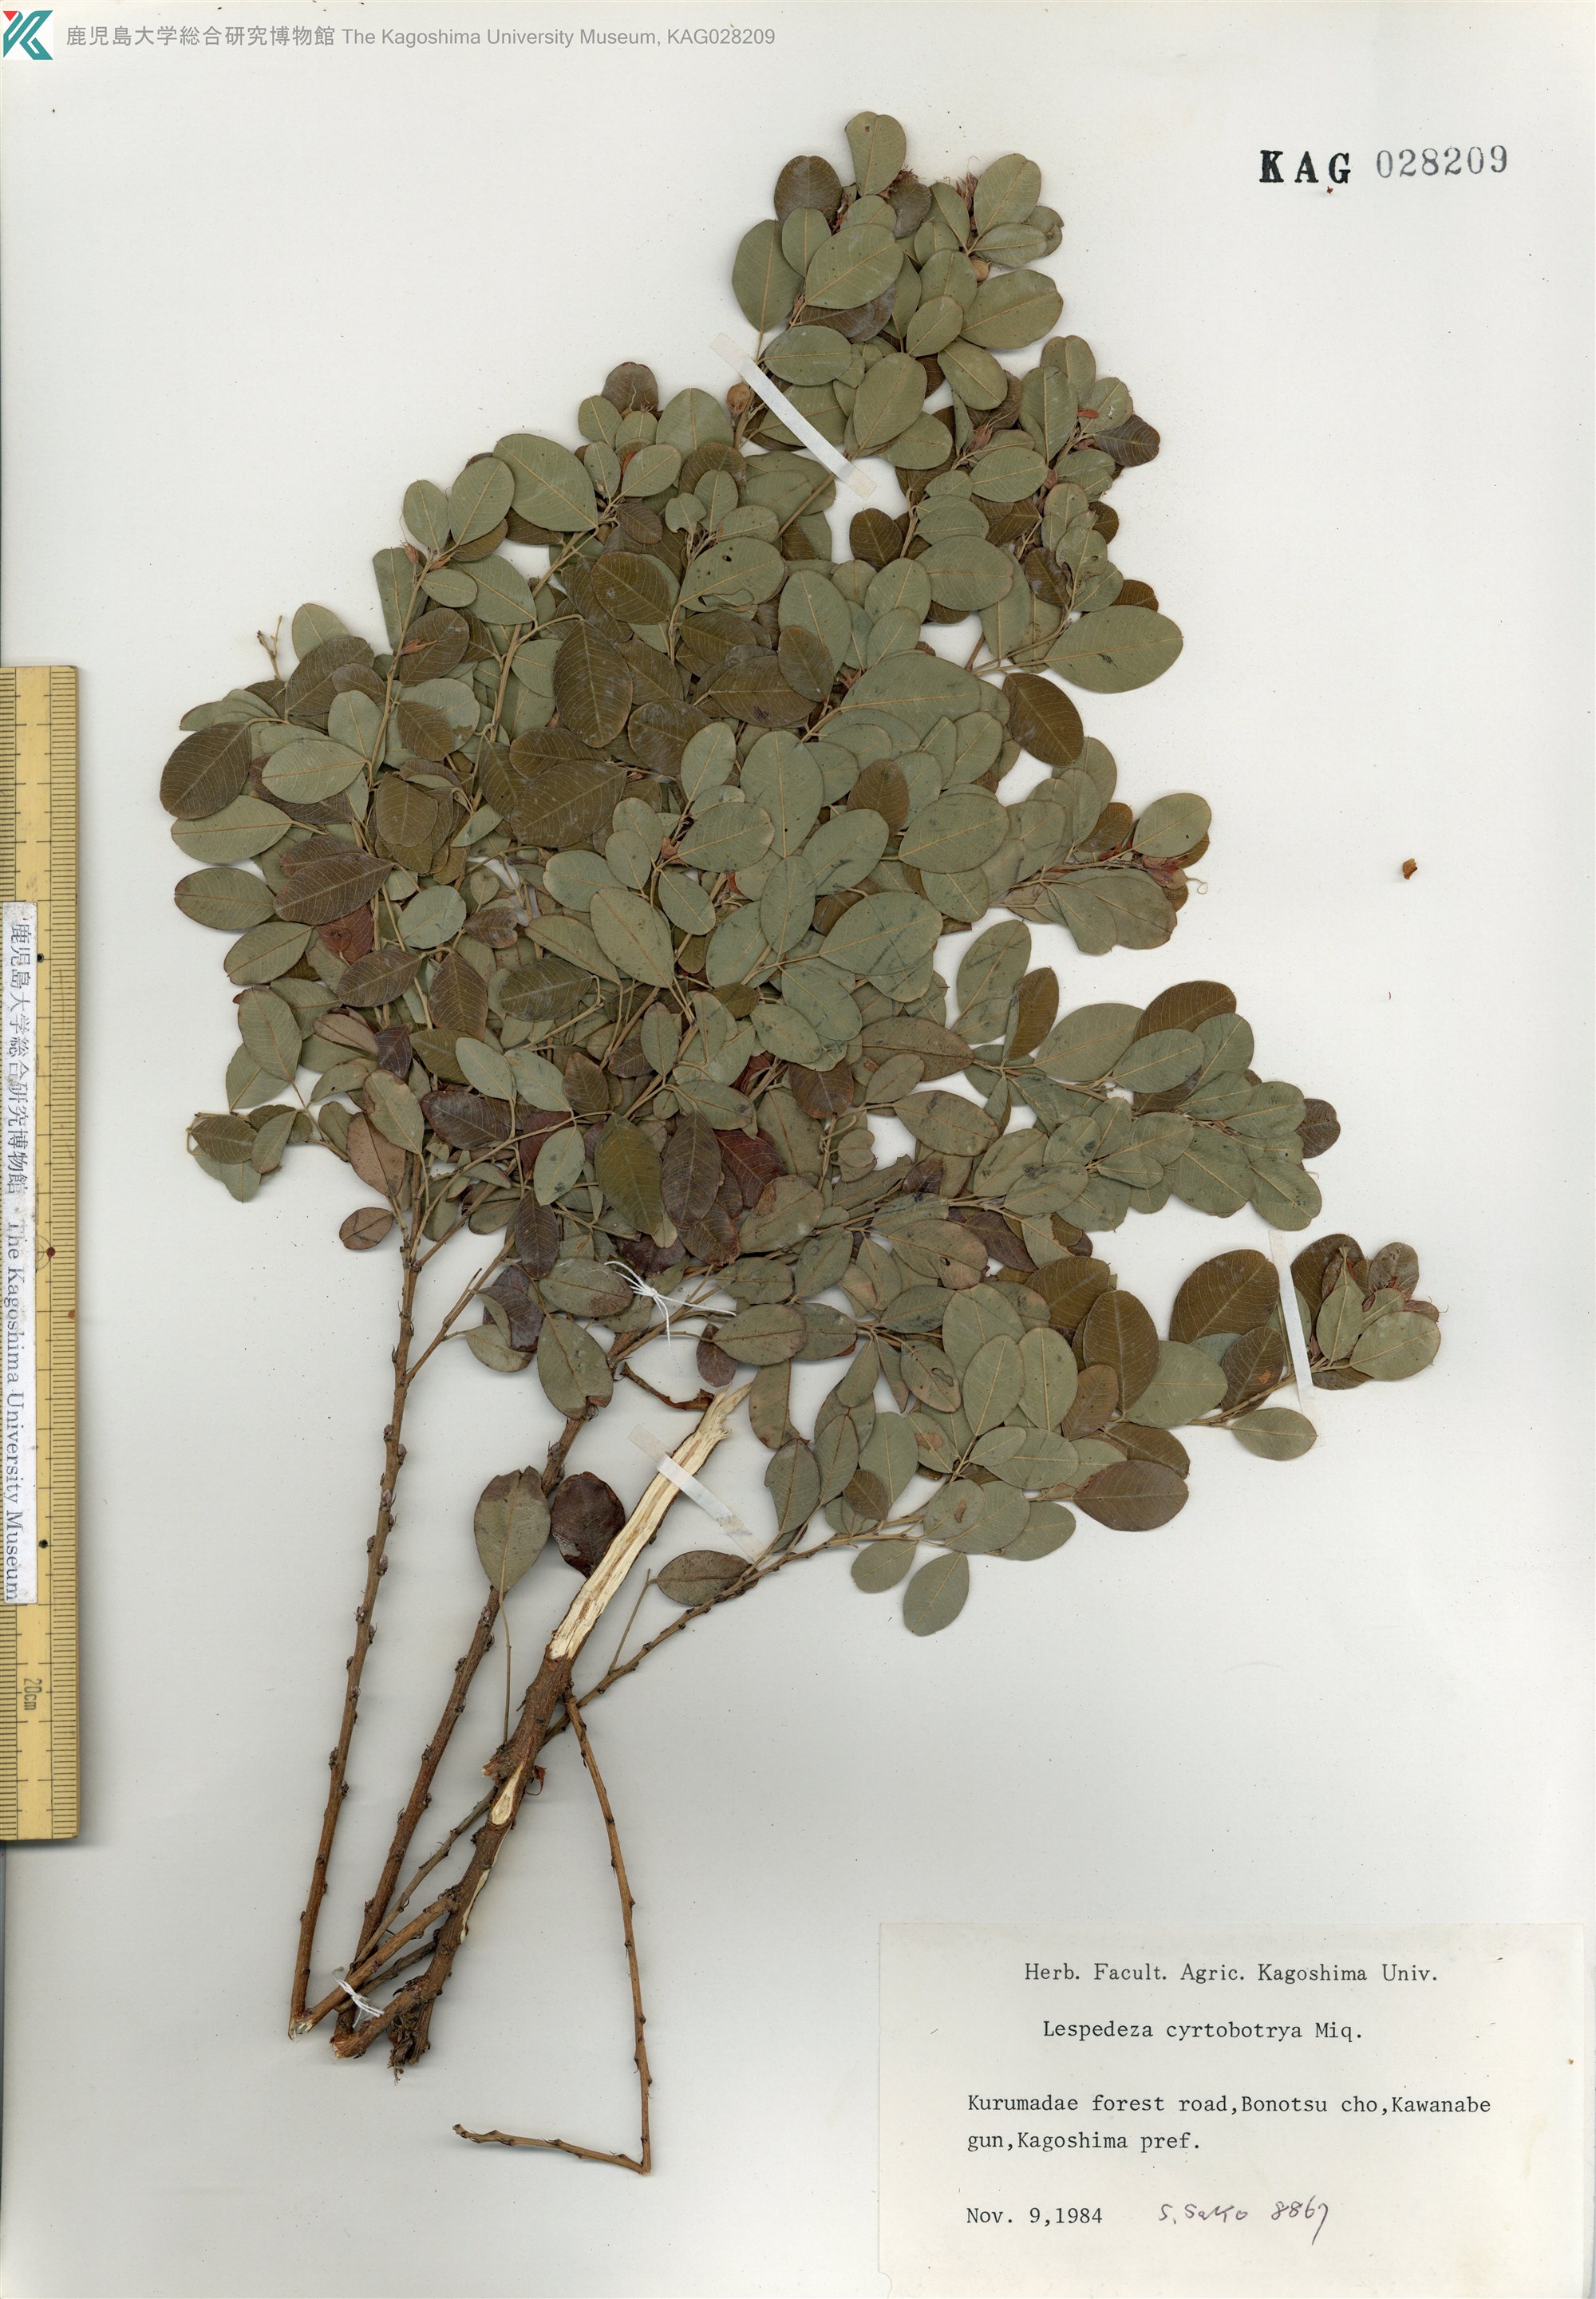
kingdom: Plantae
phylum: Tracheophyta
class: Magnoliopsida
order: Fabales
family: Fabaceae
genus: Lespedeza
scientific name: Lespedeza cyrtobotrya
